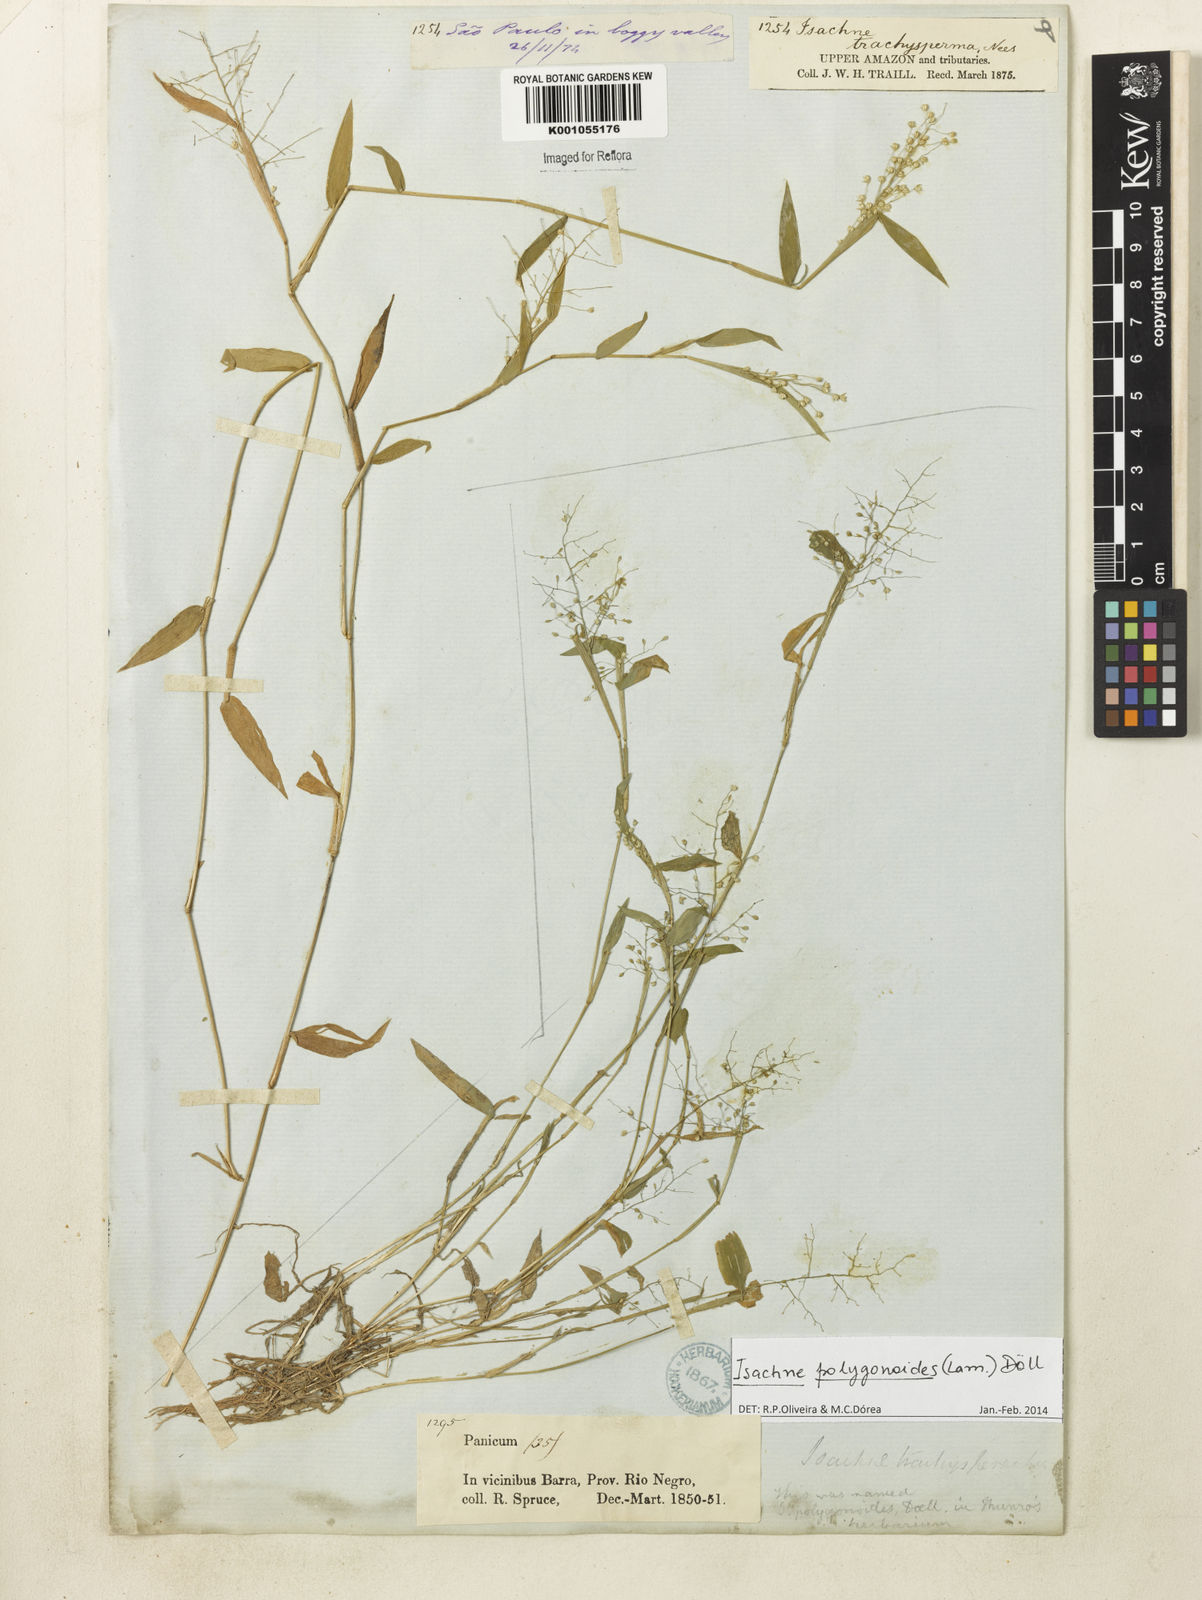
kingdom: Plantae
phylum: Tracheophyta
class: Liliopsida
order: Poales
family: Poaceae
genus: Isachne
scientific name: Isachne
